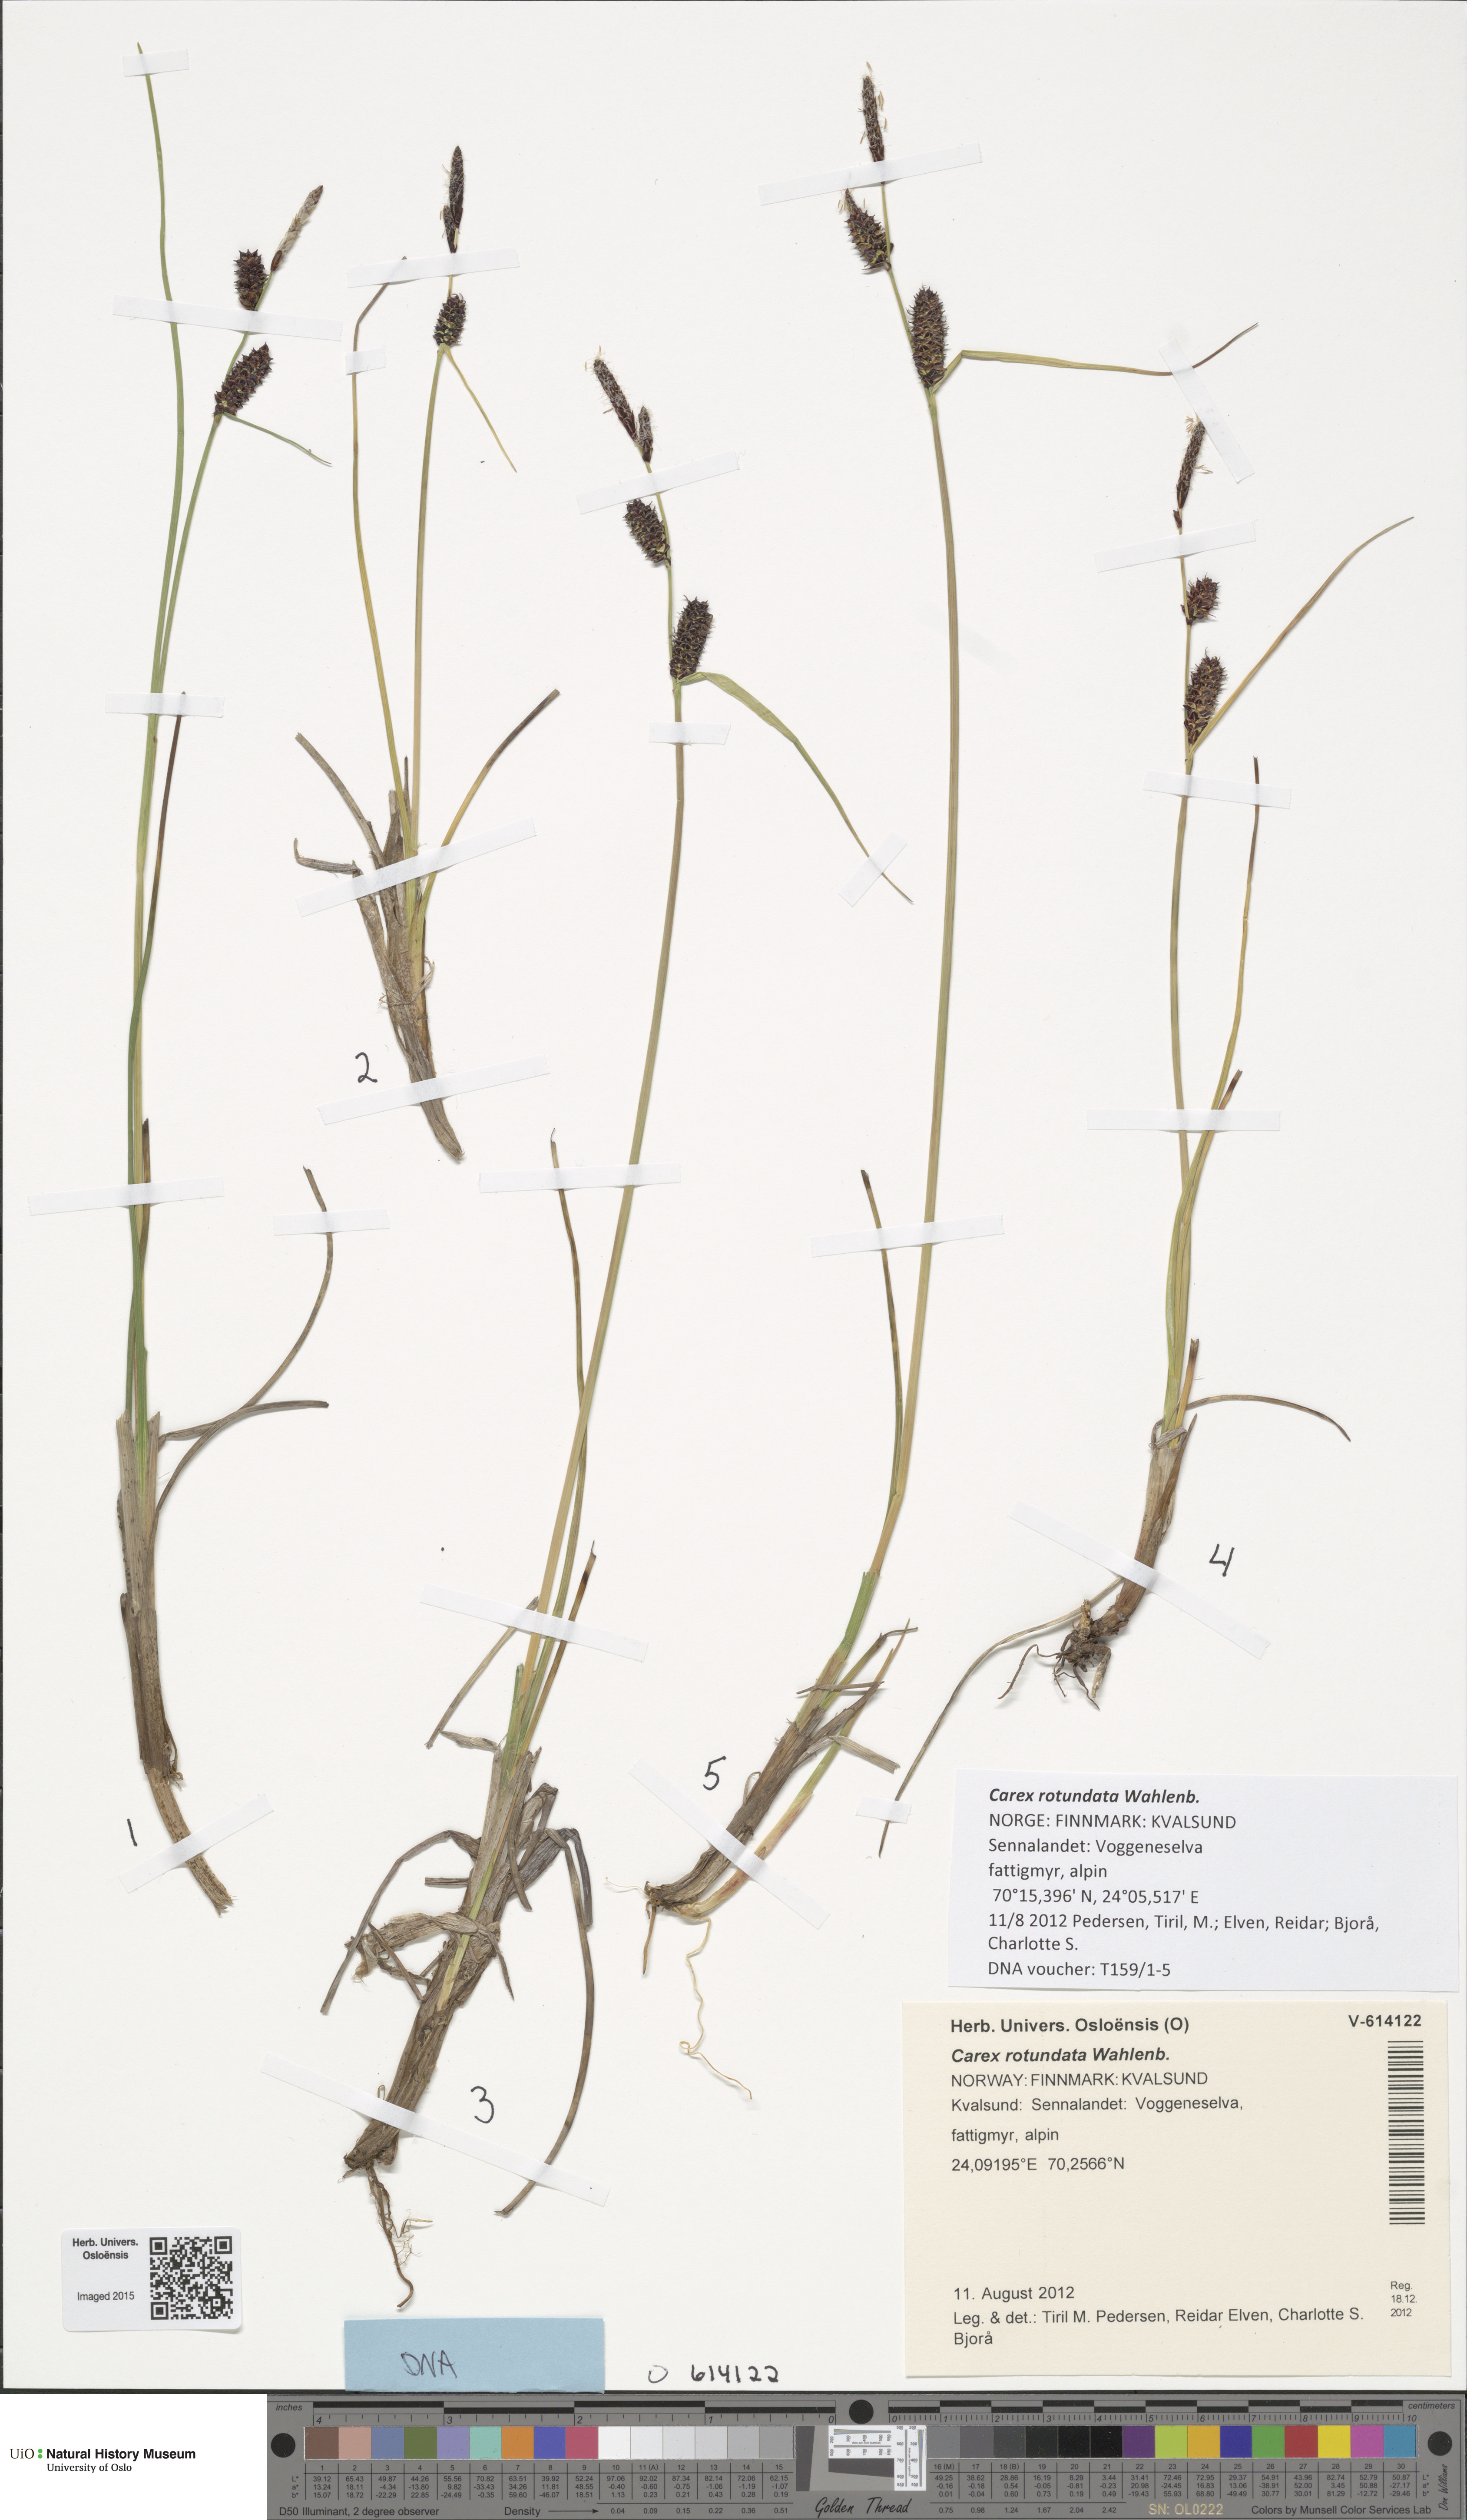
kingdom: Plantae
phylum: Tracheophyta
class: Liliopsida
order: Poales
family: Cyperaceae
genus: Carex
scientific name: Carex rotundata
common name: Round-fruited sedge
